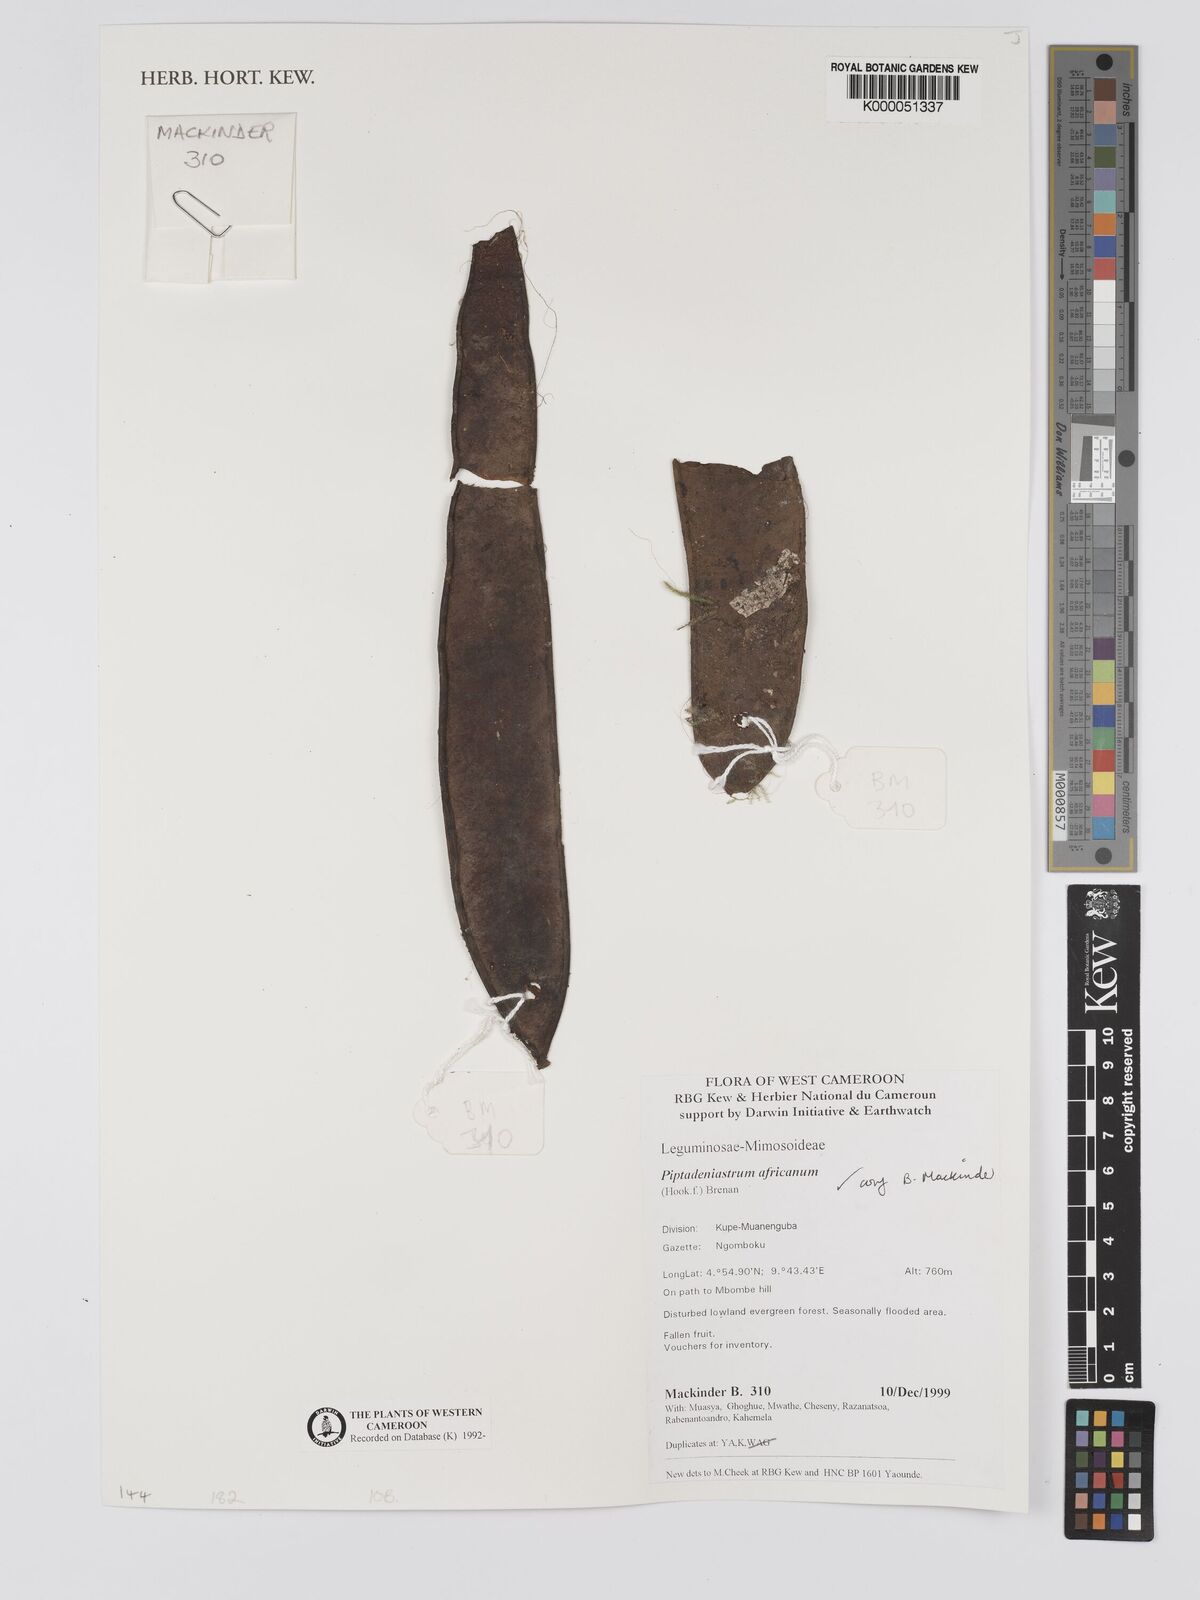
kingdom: Plantae
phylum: Tracheophyta
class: Magnoliopsida
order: Fabales
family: Fabaceae
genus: Piptadeniastrum
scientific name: Piptadeniastrum africanum
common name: African greenheart
